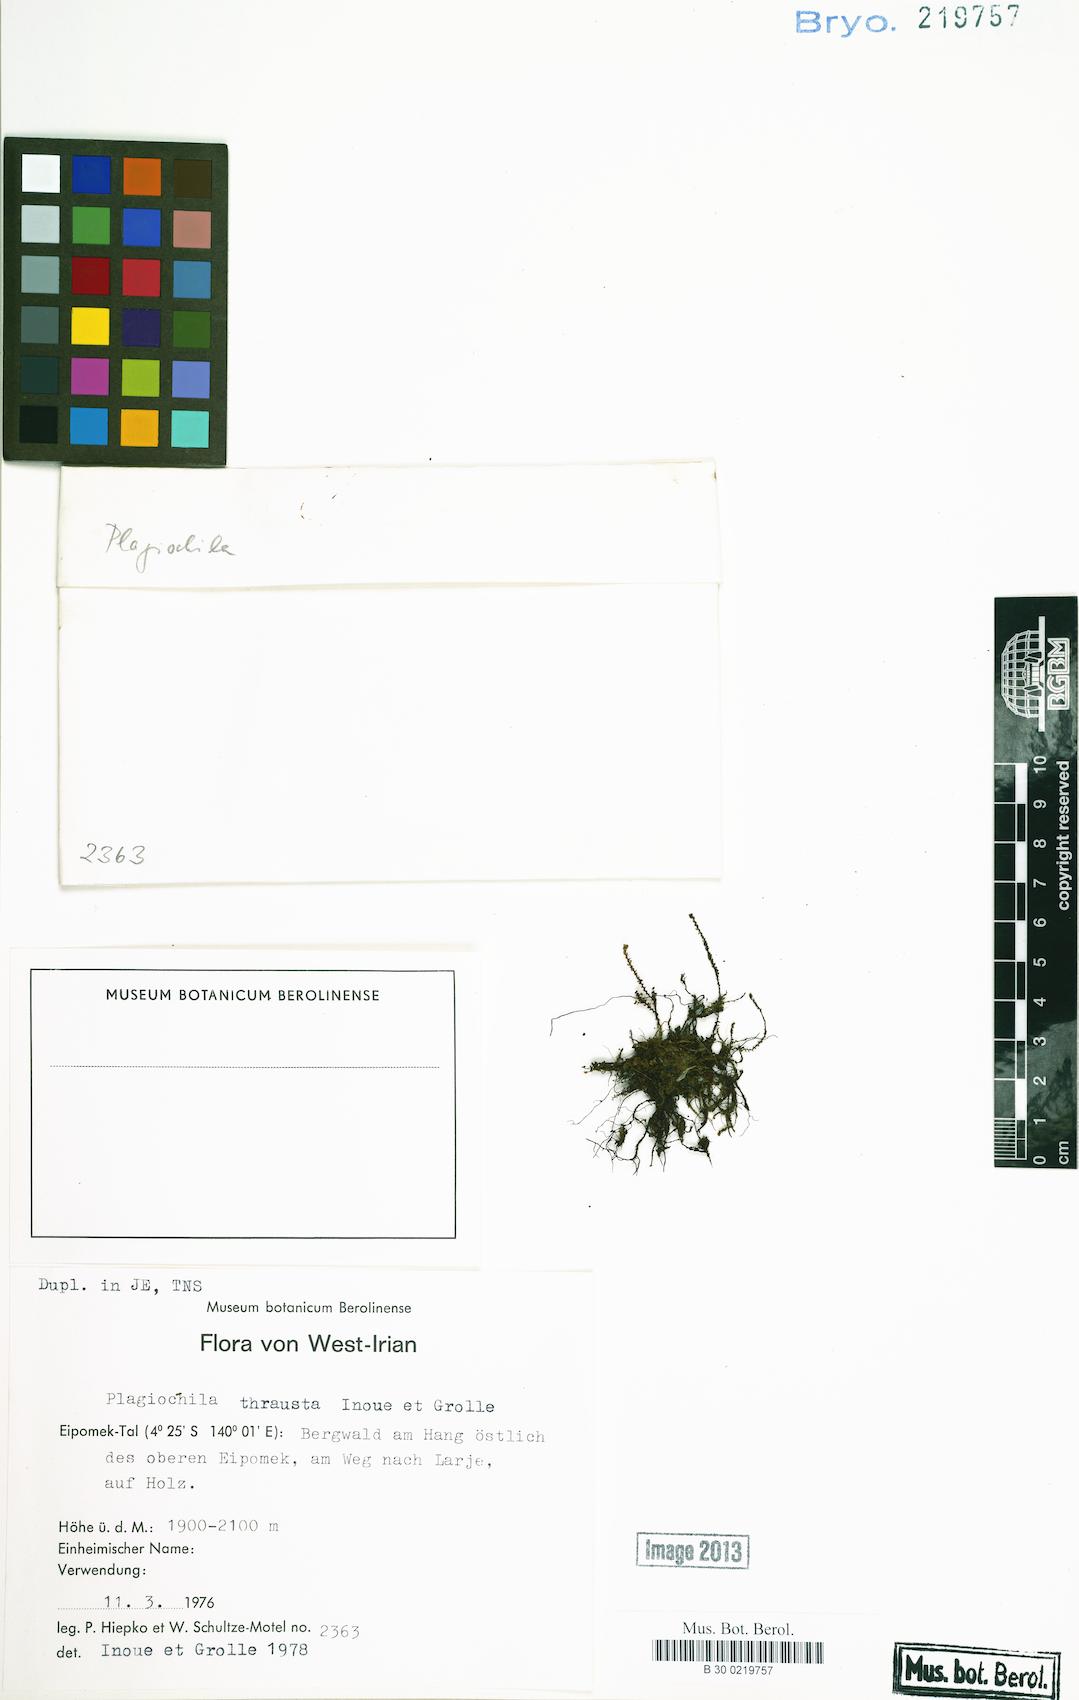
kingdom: Plantae
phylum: Marchantiophyta
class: Jungermanniopsida
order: Jungermanniales
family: Plagiochilaceae
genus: Plagiochila
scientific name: Plagiochila thrausta
